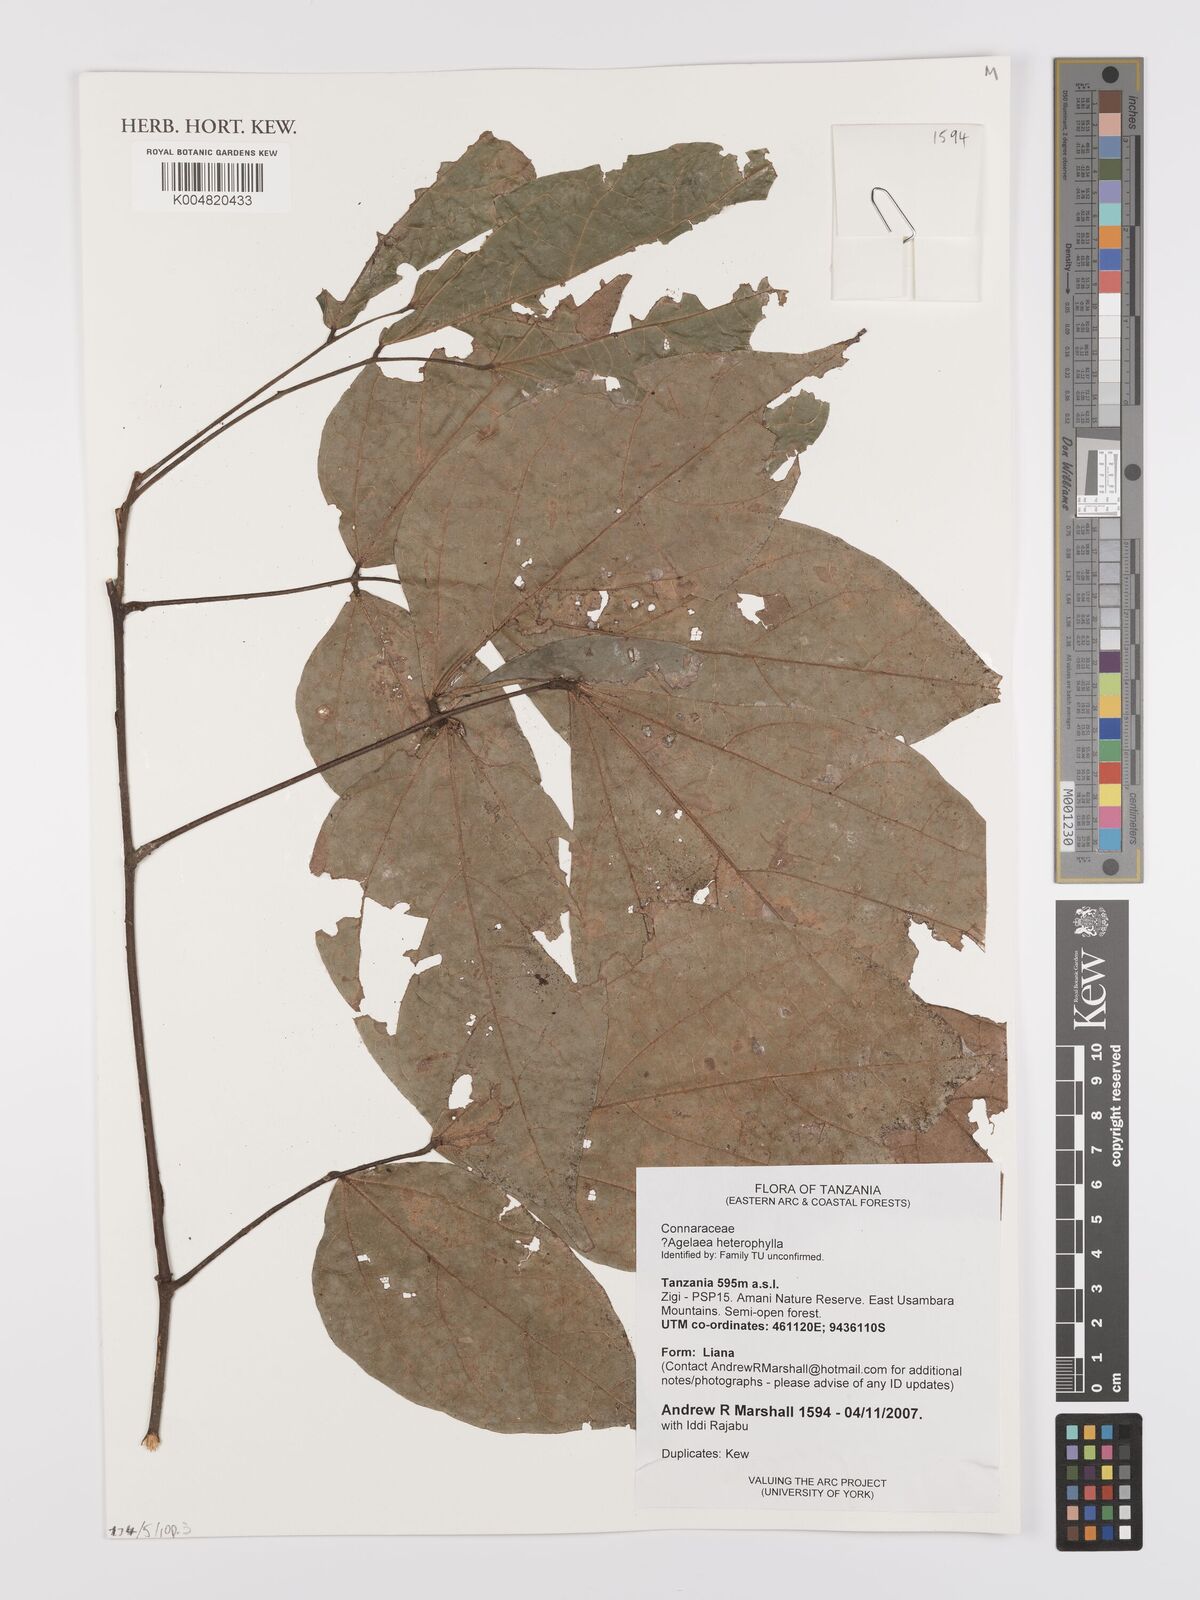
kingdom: Plantae
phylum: Tracheophyta
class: Magnoliopsida
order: Oxalidales
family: Connaraceae
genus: Agelaea
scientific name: Agelaea
